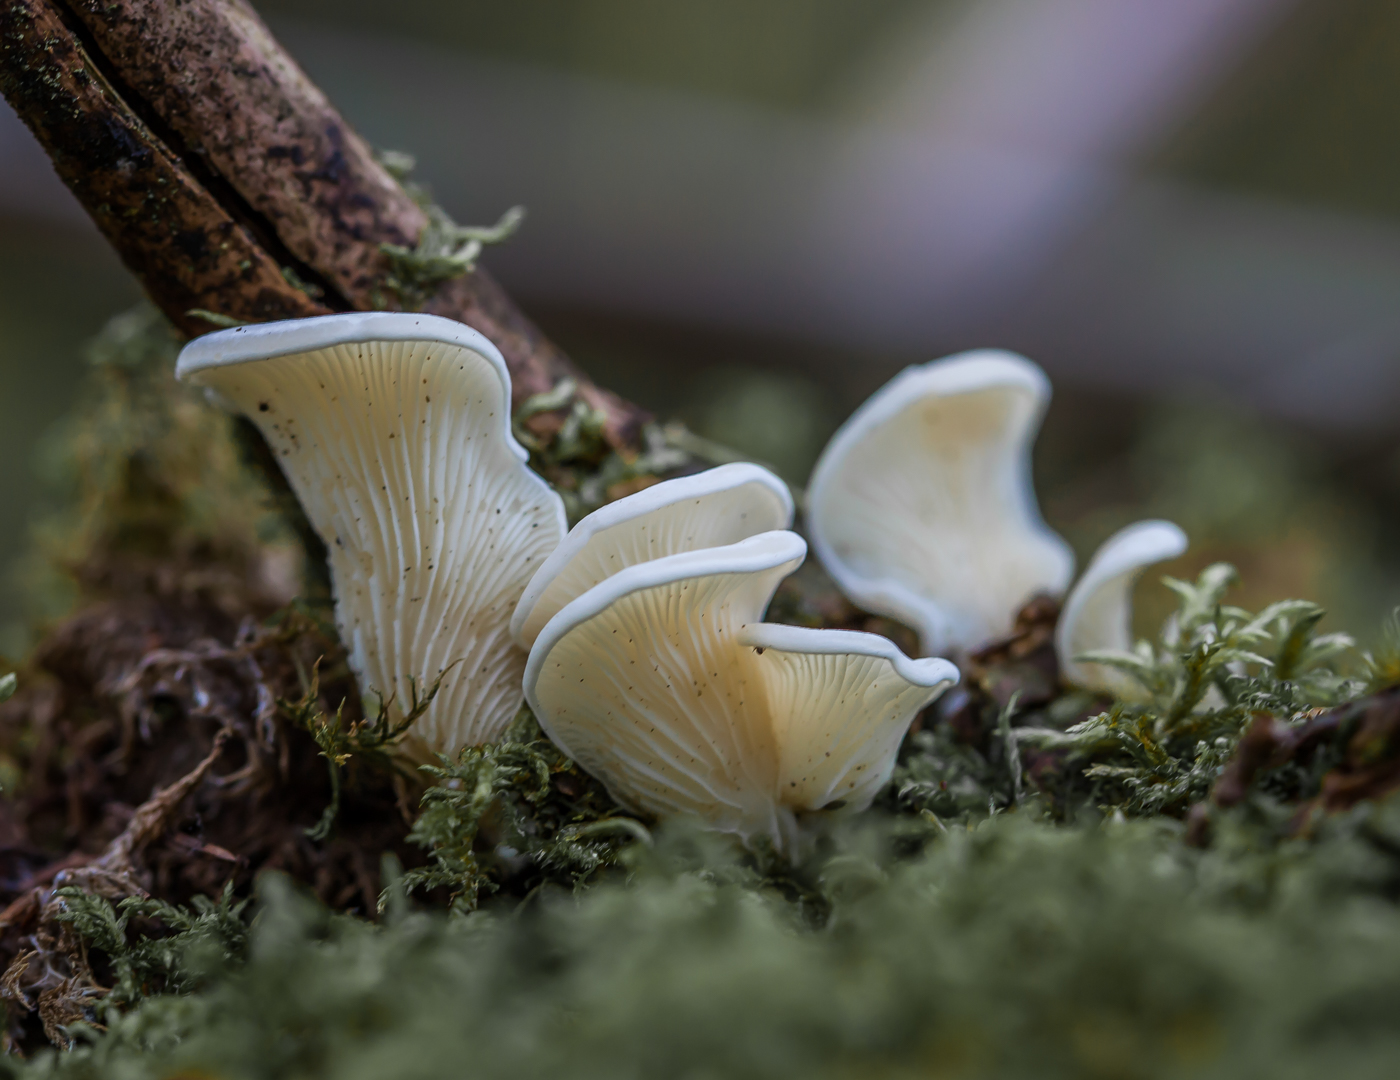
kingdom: Fungi
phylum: Basidiomycota
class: Agaricomycetes
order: Agaricales
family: Marasmiaceae
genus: Pleurocybella
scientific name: Pleurocybella porrigens
